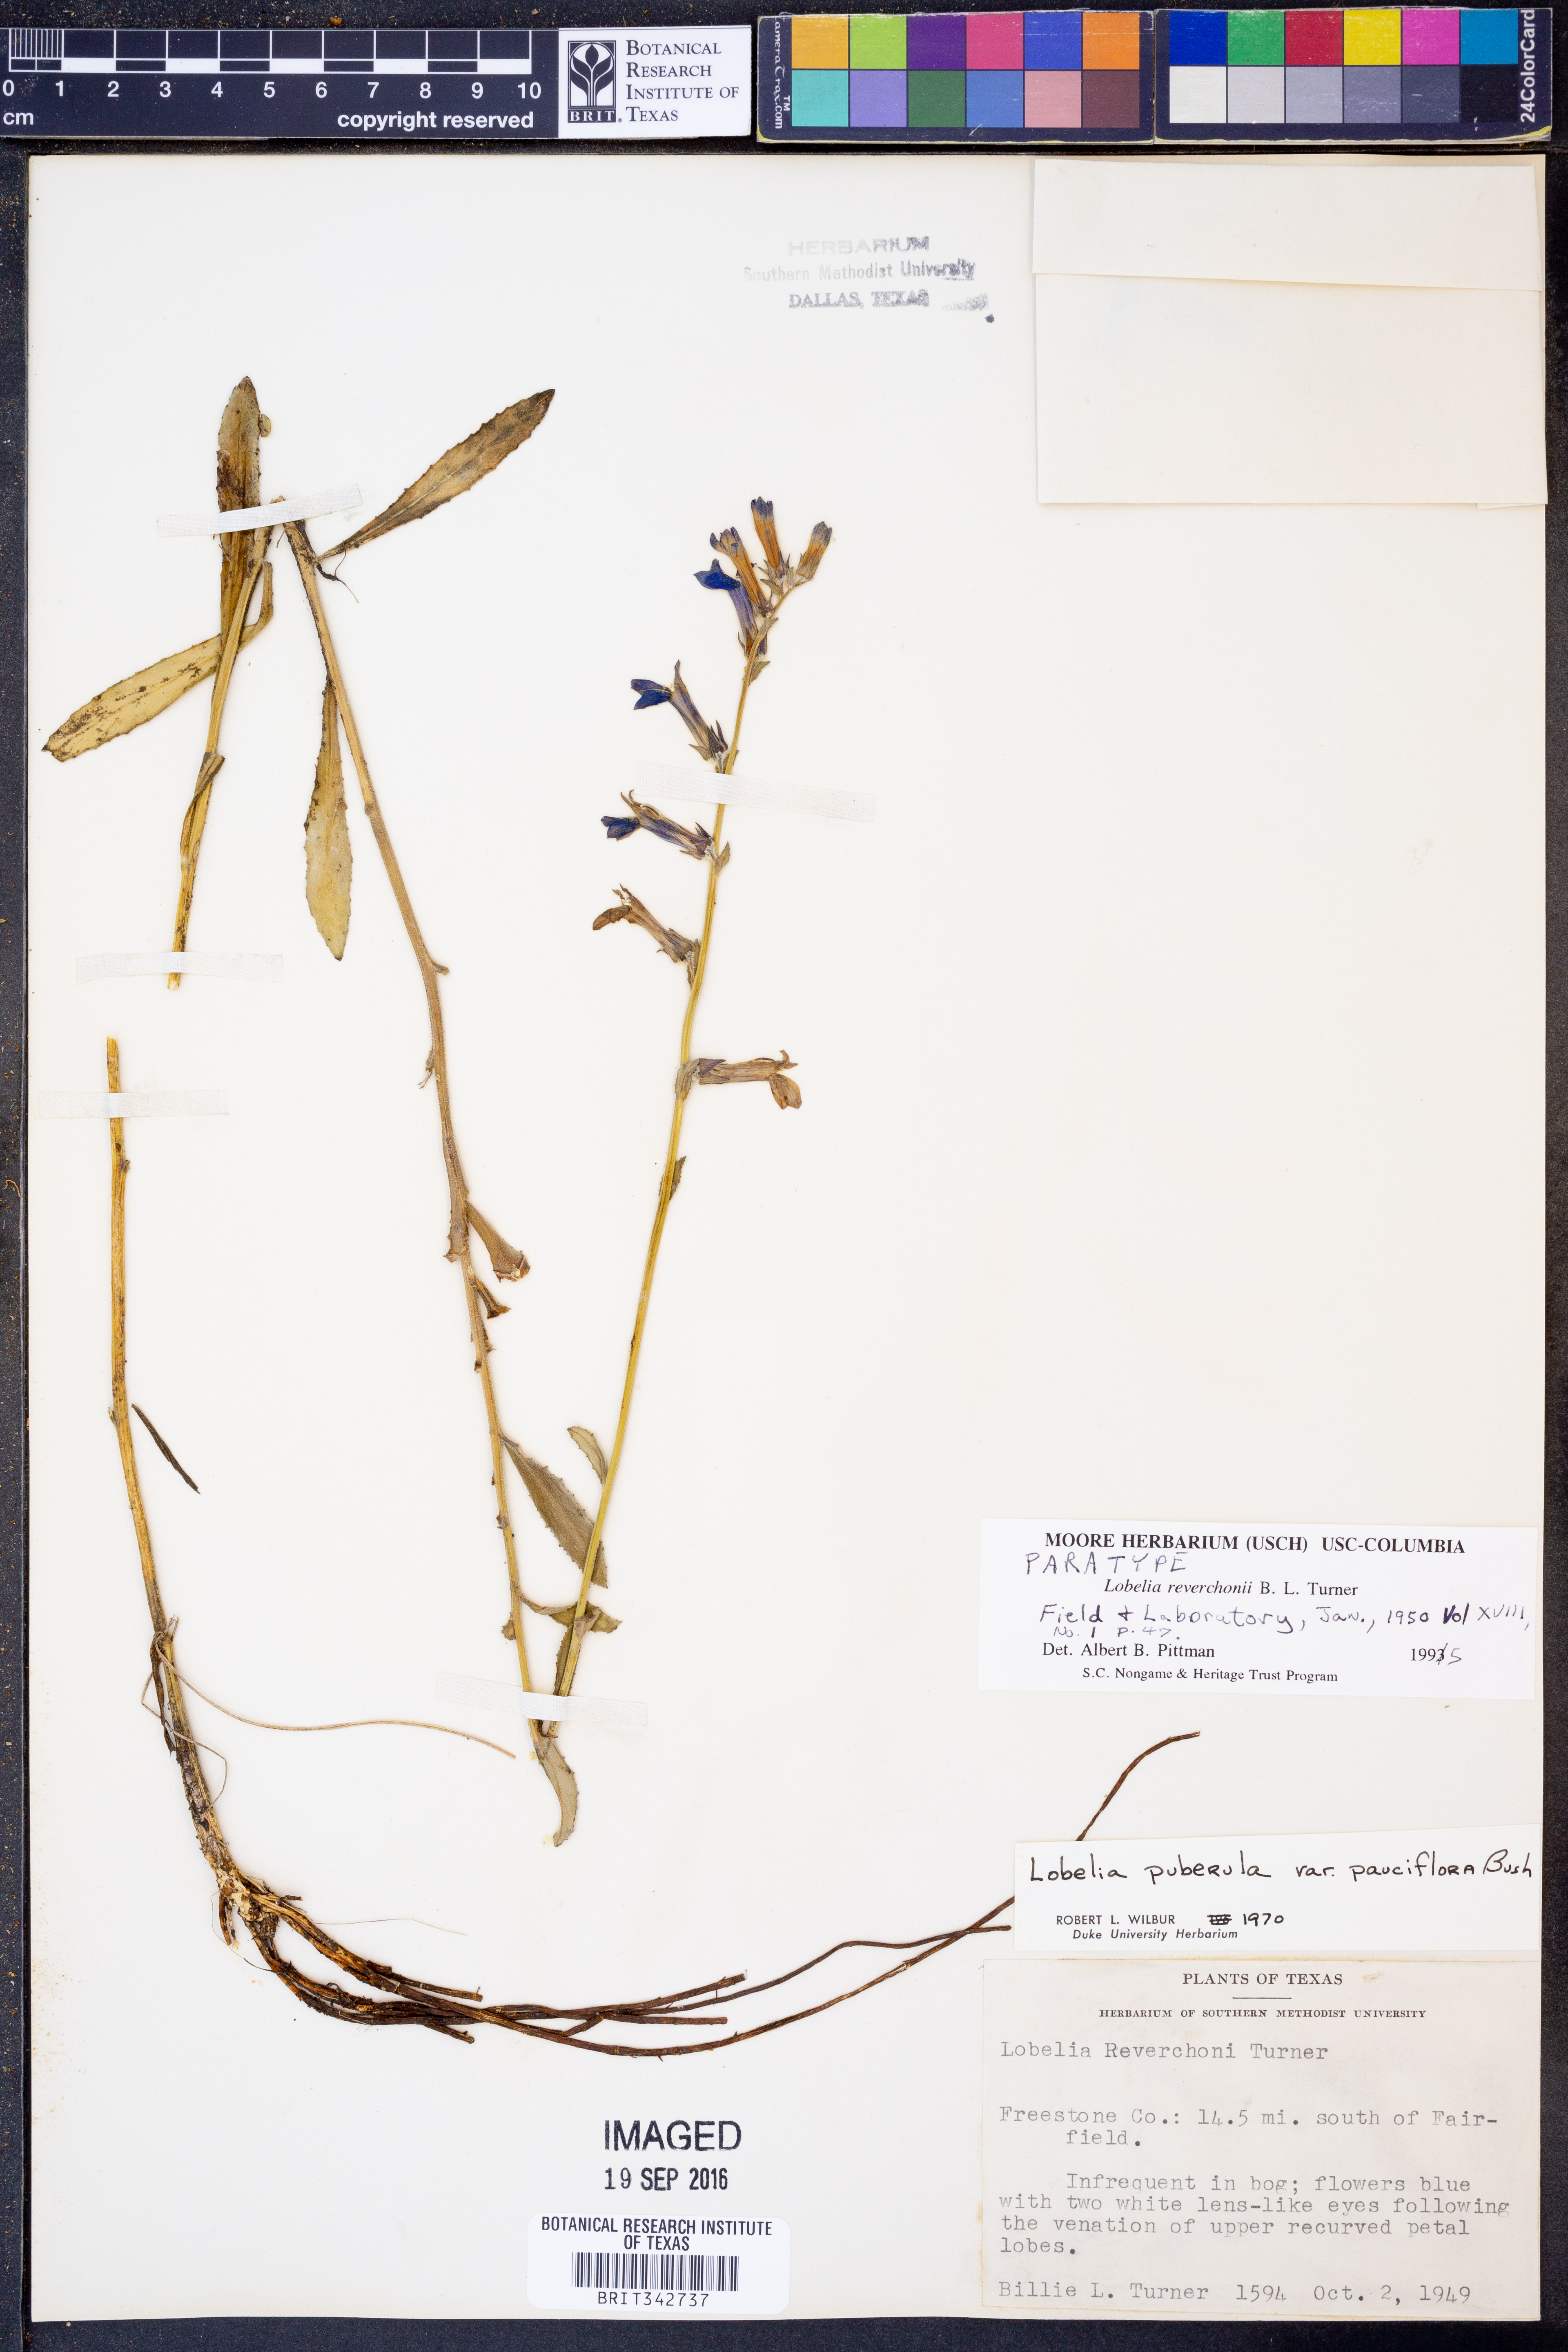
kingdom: Plantae
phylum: Tracheophyta
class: Magnoliopsida
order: Asterales
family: Campanulaceae
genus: Lobelia
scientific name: Lobelia reverchonii
